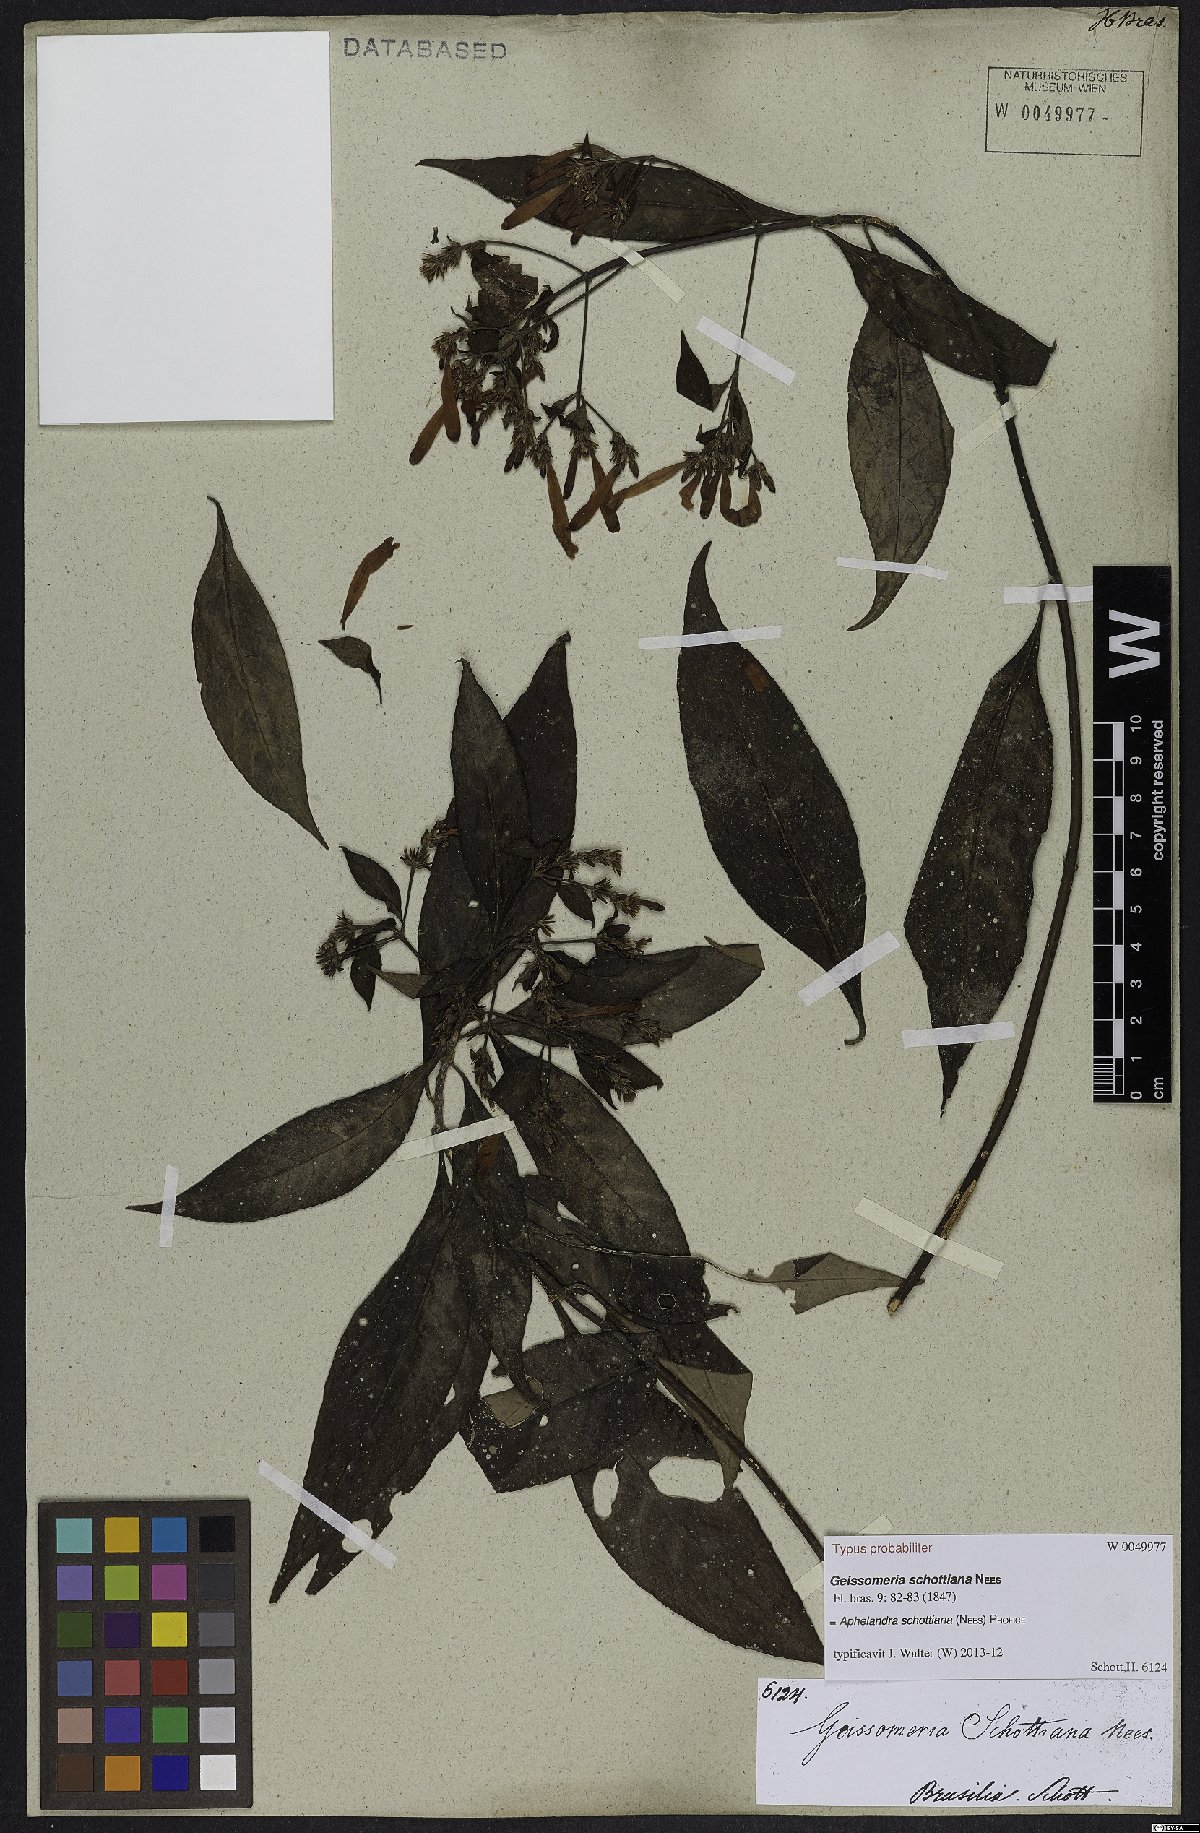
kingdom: Plantae
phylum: Tracheophyta
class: Magnoliopsida
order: Lamiales
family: Acanthaceae
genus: Aphelandra
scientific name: Aphelandra schottiana
